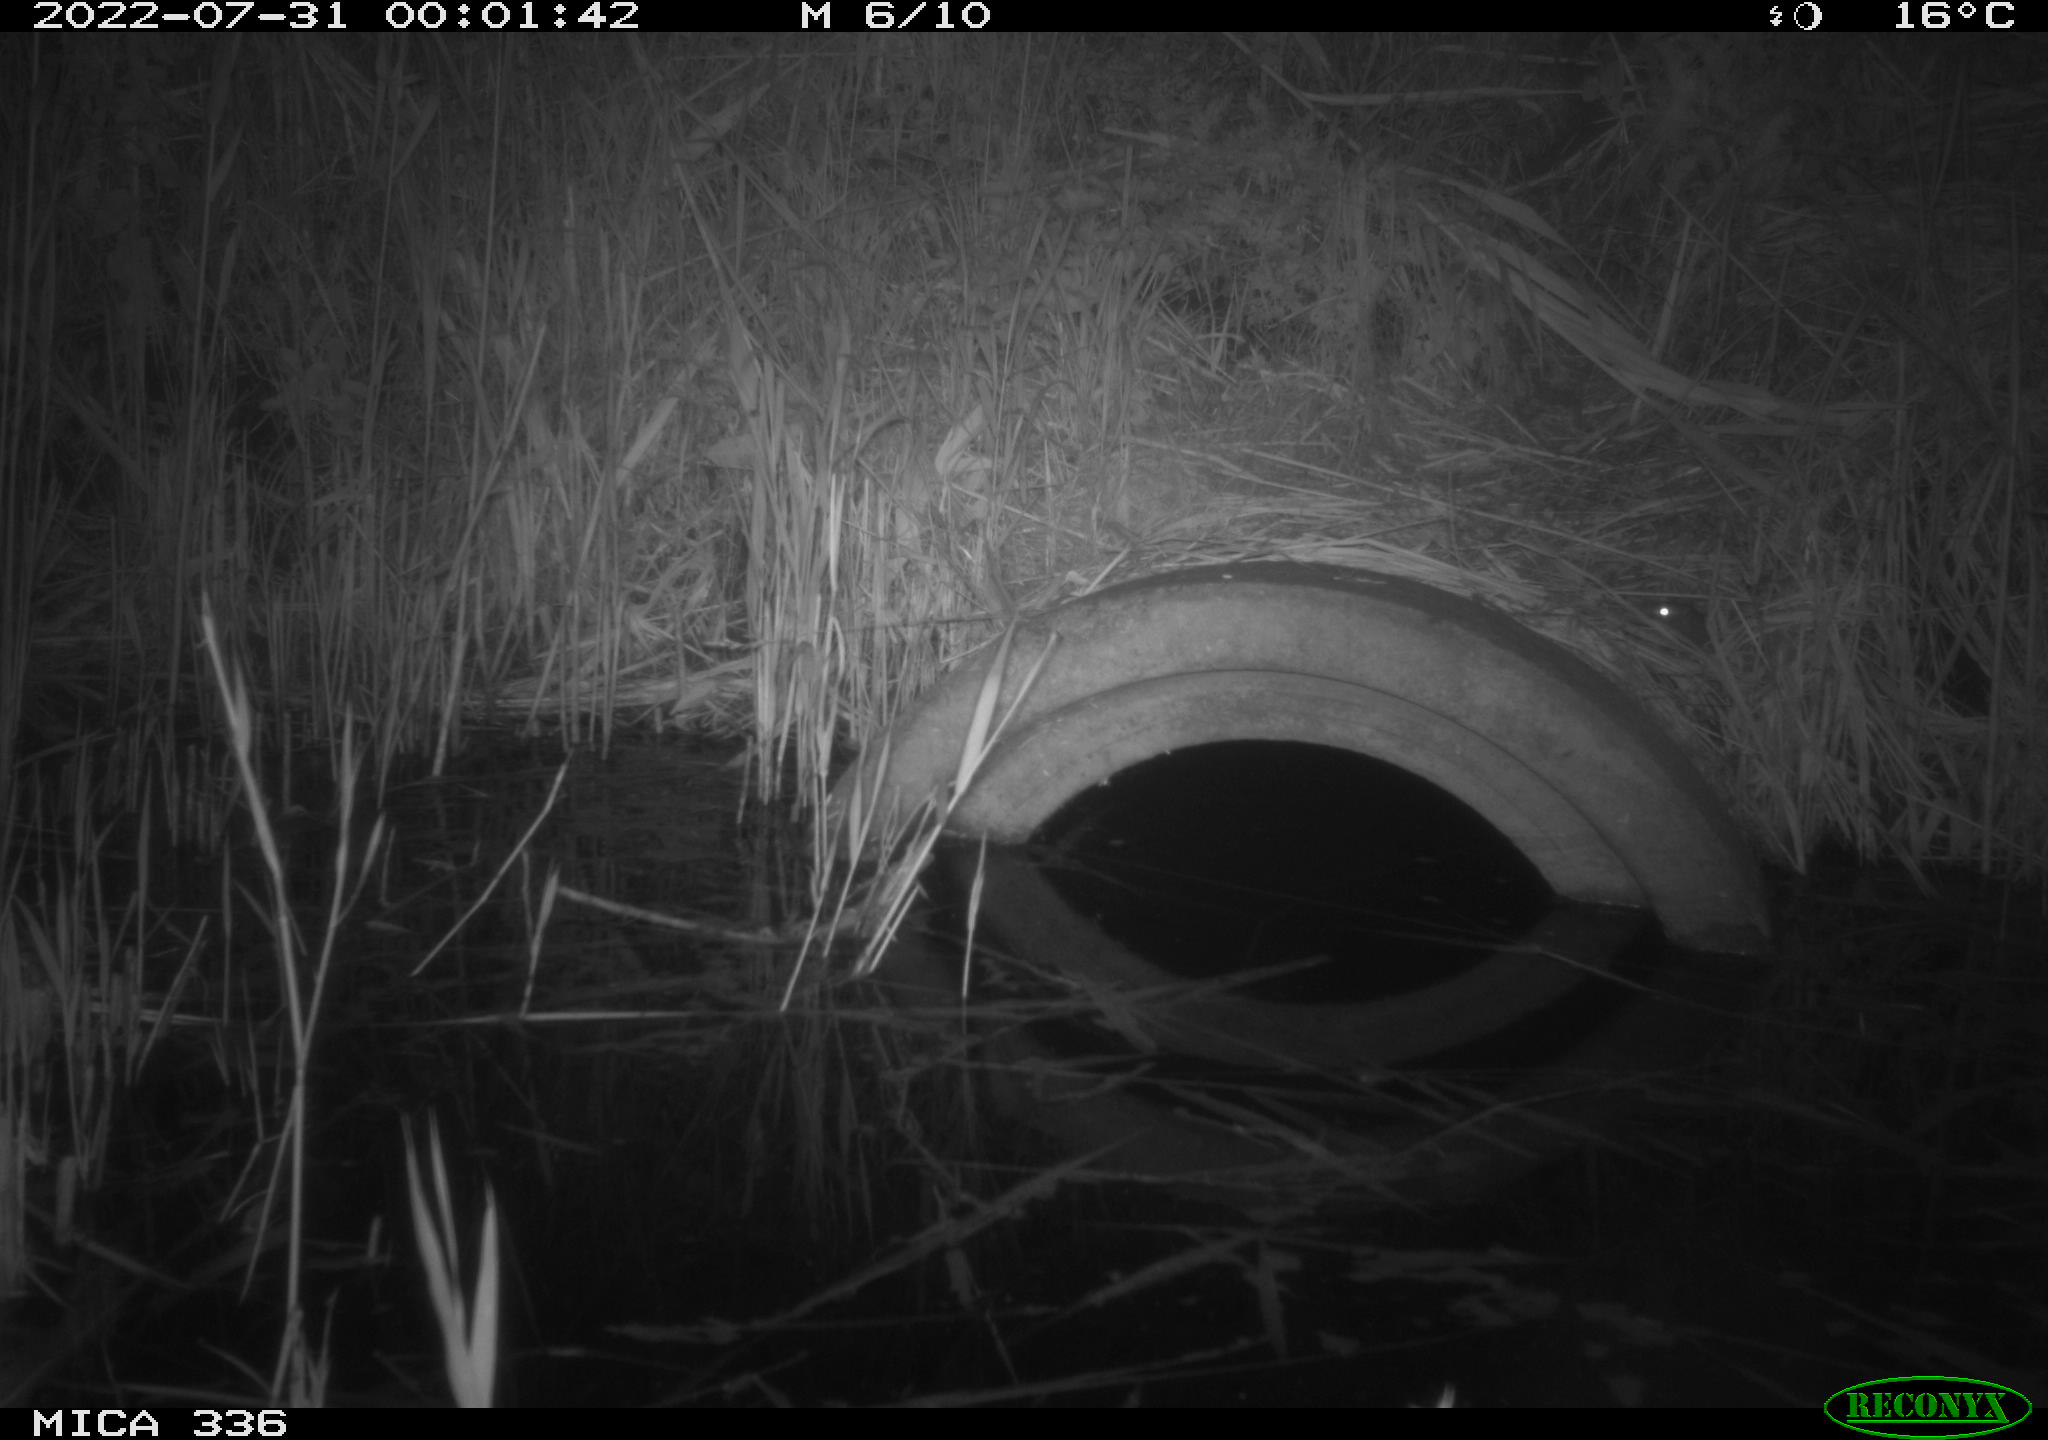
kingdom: Animalia
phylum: Chordata
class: Mammalia
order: Rodentia
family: Muridae
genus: Rattus
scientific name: Rattus norvegicus
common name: Brown rat
